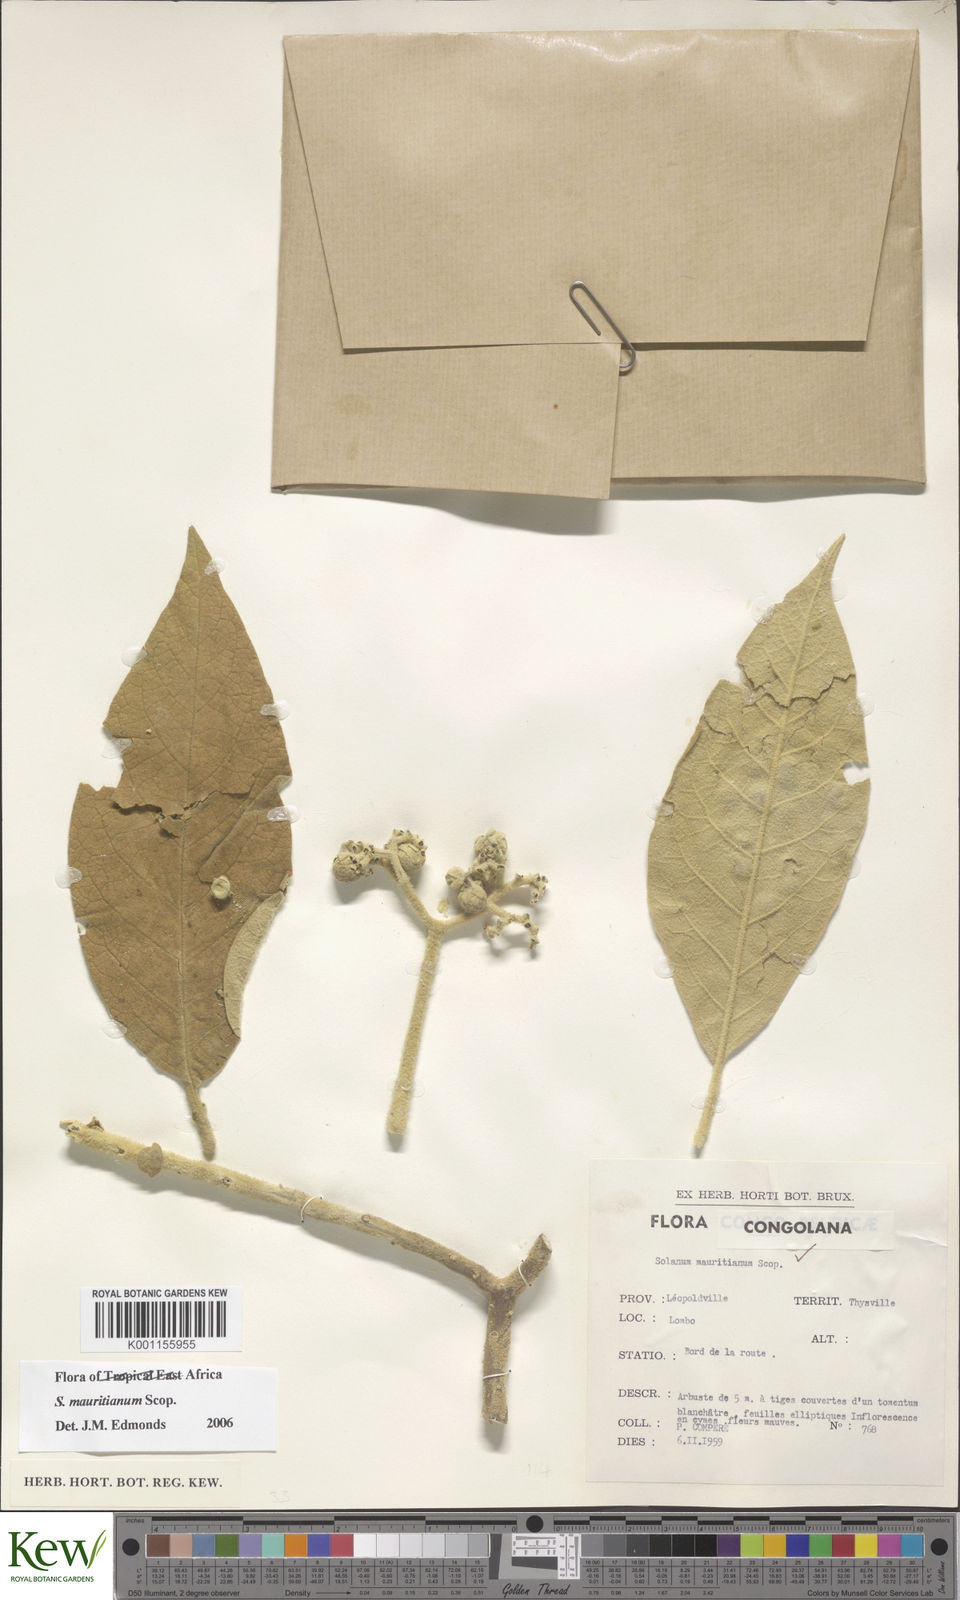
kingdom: Plantae
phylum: Tracheophyta
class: Magnoliopsida
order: Solanales
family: Solanaceae
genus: Solanum
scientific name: Solanum mauritianum
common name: Earleaf nightshade
